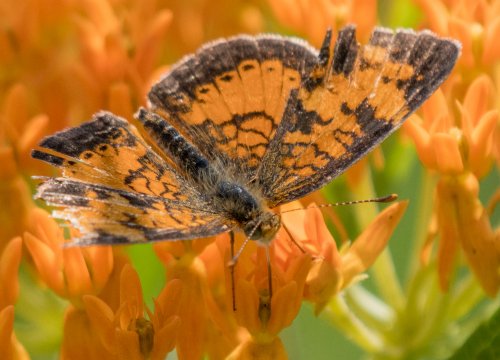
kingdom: Animalia
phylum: Arthropoda
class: Insecta
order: Lepidoptera
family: Nymphalidae
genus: Phyciodes
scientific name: Phyciodes tharos
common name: Northern Crescent
